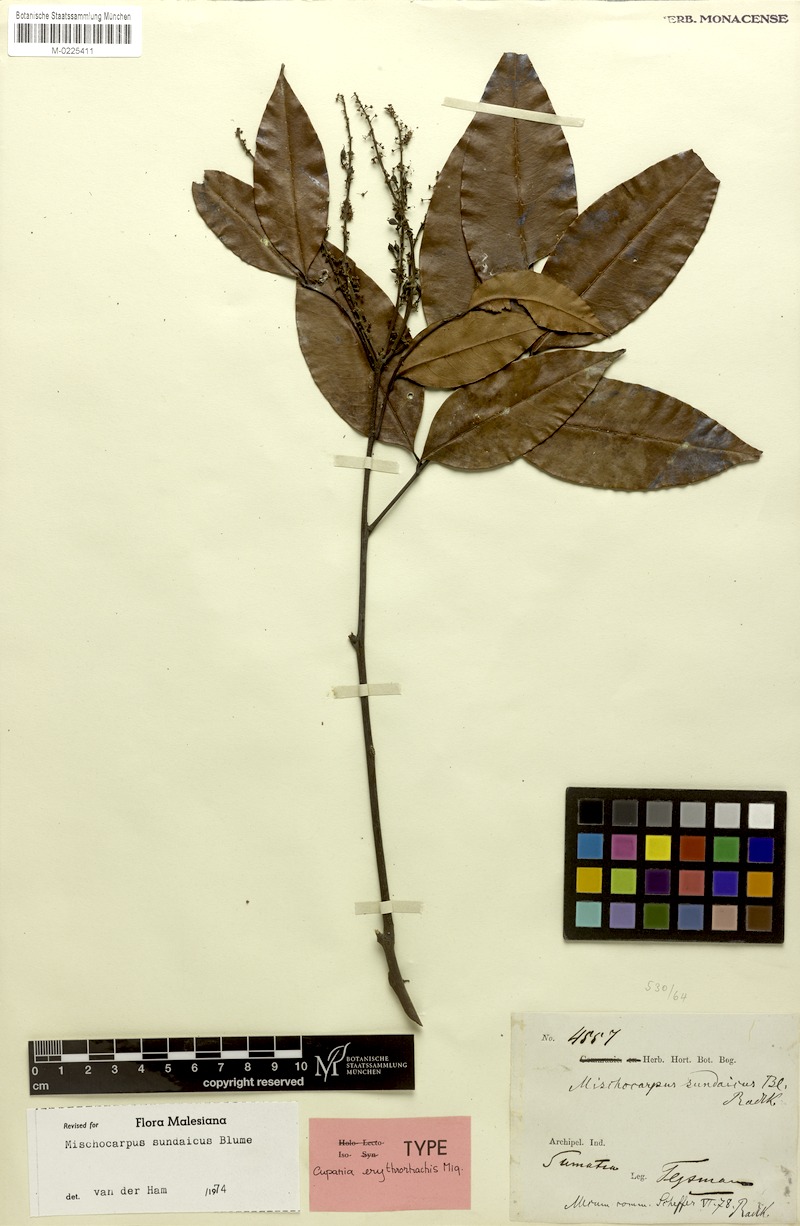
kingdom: Plantae
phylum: Tracheophyta
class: Magnoliopsida
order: Sapindales
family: Sapindaceae
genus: Mischocarpus
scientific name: Mischocarpus sundaicus
